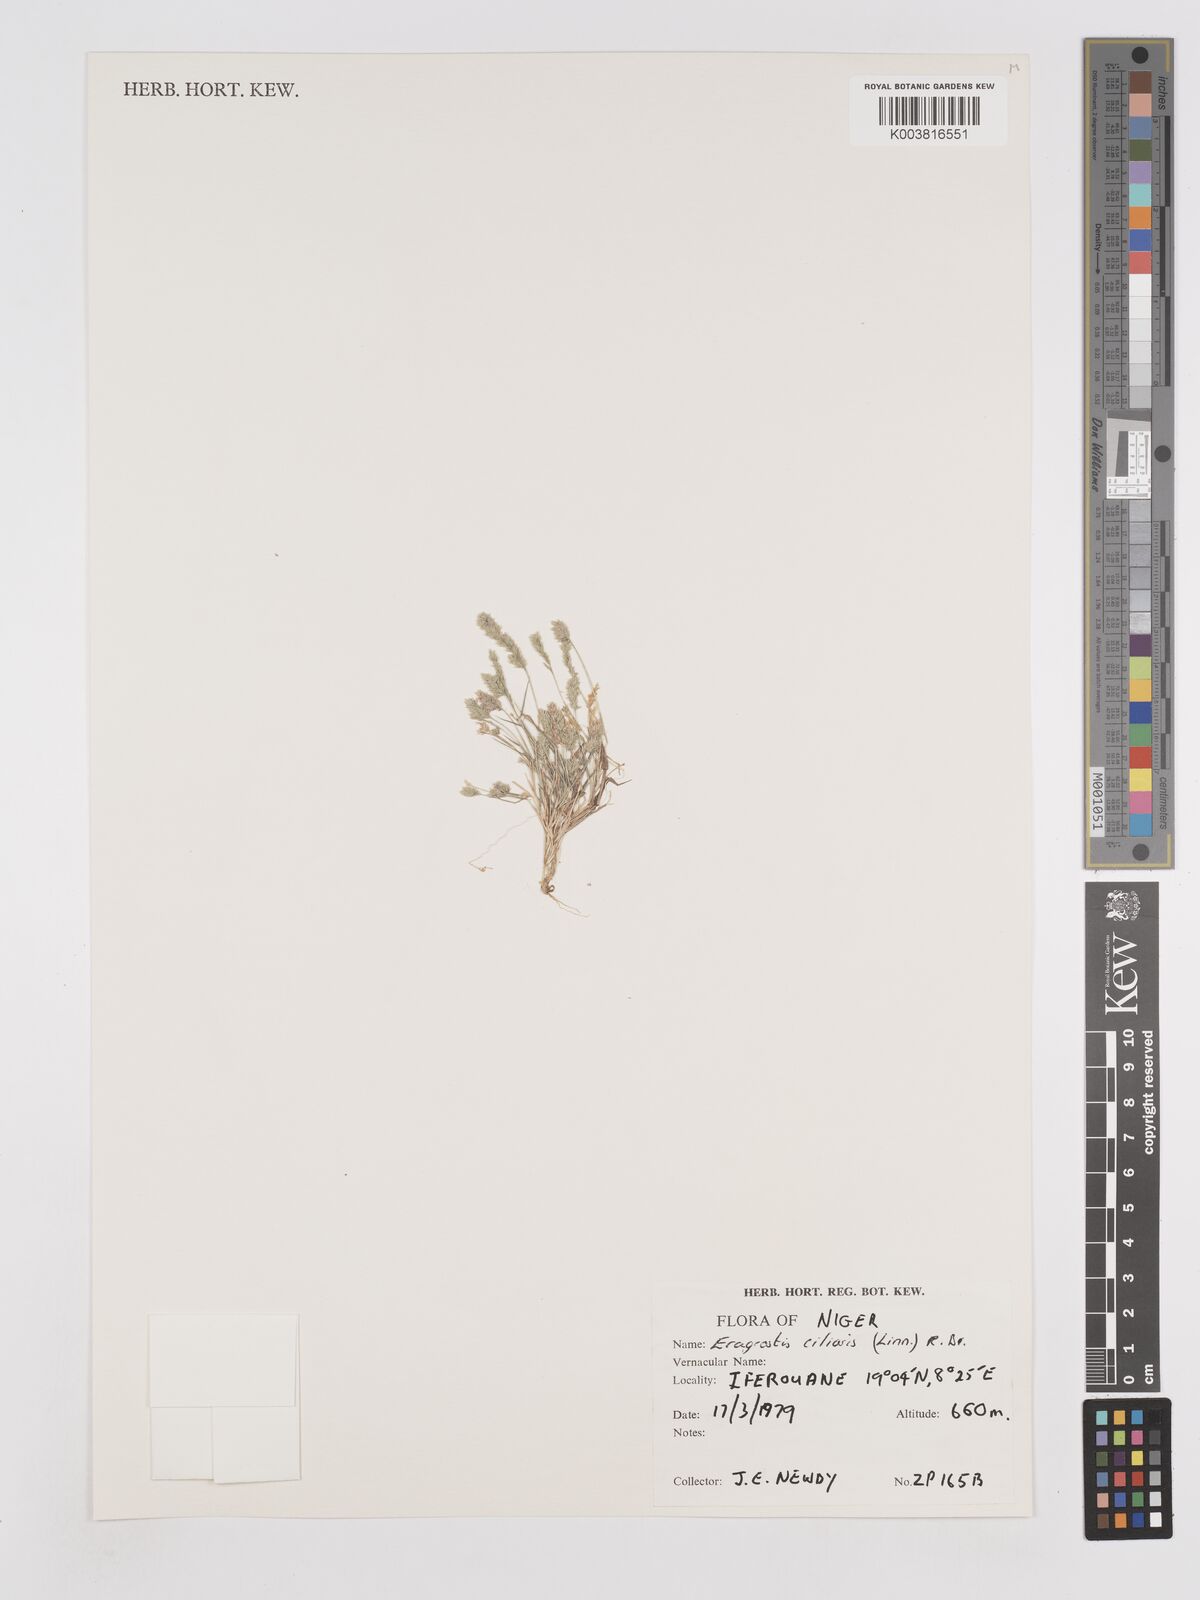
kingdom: Plantae
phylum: Tracheophyta
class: Liliopsida
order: Poales
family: Poaceae
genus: Eragrostis
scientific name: Eragrostis ciliaris
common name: Gophertail lovegrass
